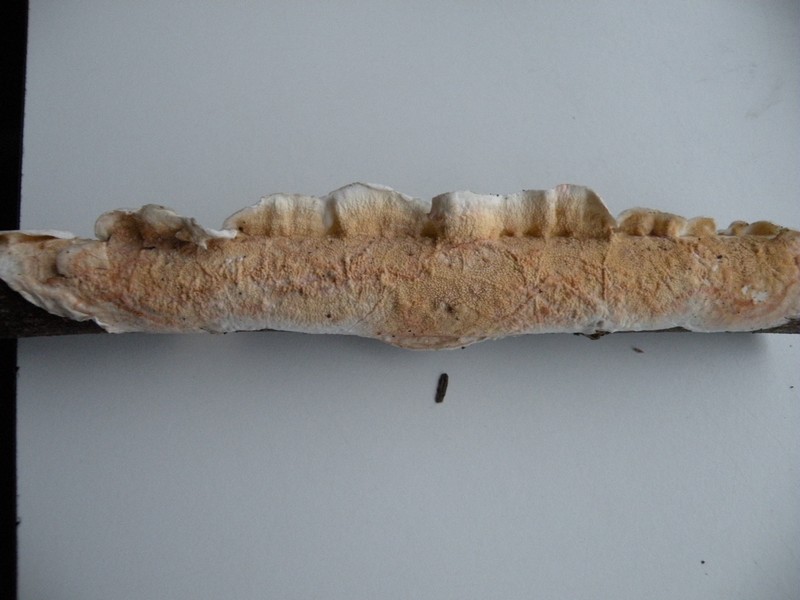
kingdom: Fungi
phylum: Basidiomycota
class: Agaricomycetes
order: Polyporales
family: Irpicaceae
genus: Byssomerulius
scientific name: Byssomerulius corium
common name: læder-åresvamp
